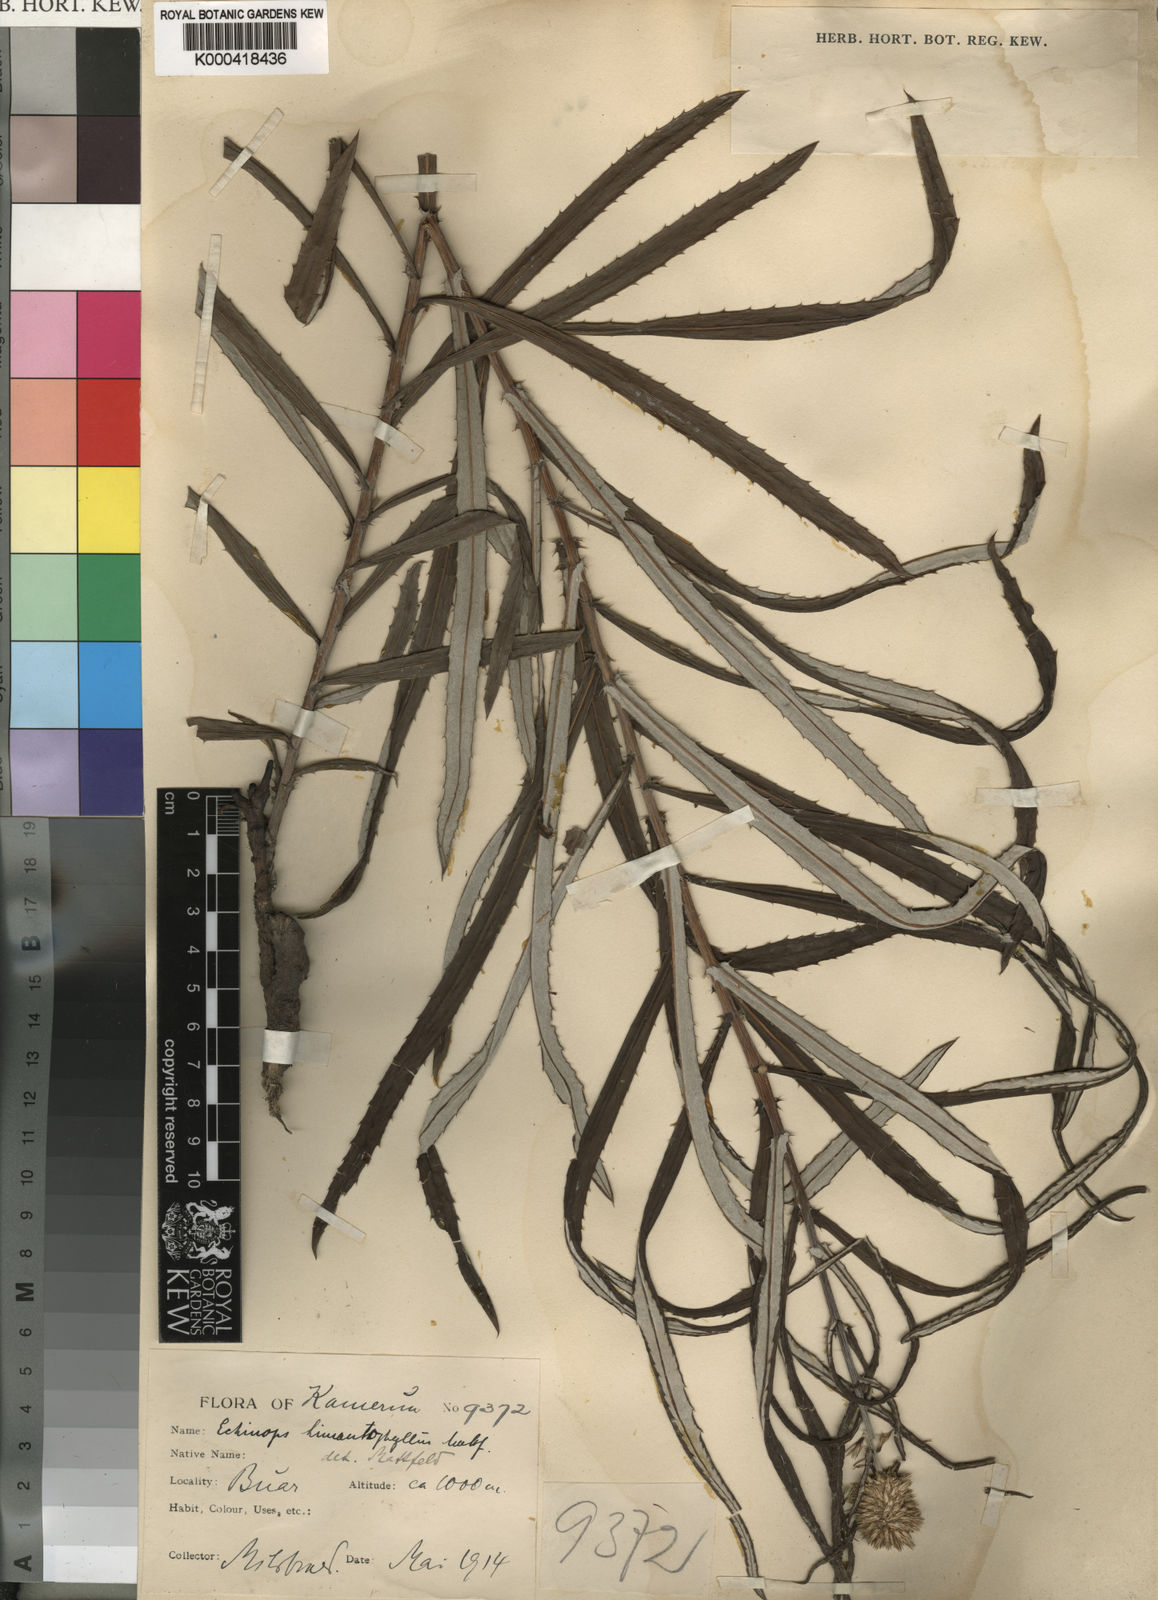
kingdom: Plantae
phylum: Tracheophyta
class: Magnoliopsida
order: Asterales
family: Asteraceae
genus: Echinops
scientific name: Echinops himantophyllus
